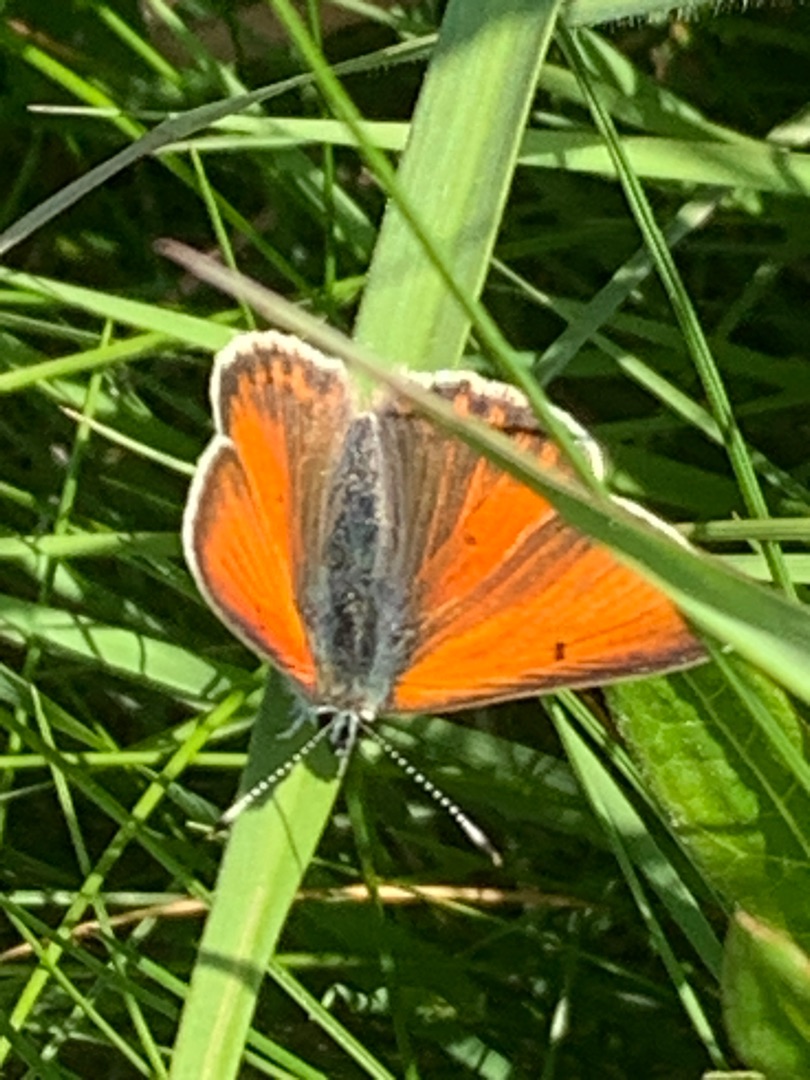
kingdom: Animalia
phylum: Arthropoda
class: Insecta
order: Lepidoptera
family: Lycaenidae
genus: Palaeochrysophanus
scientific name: Palaeochrysophanus hippothoe
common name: Violetrandet ildfugl
